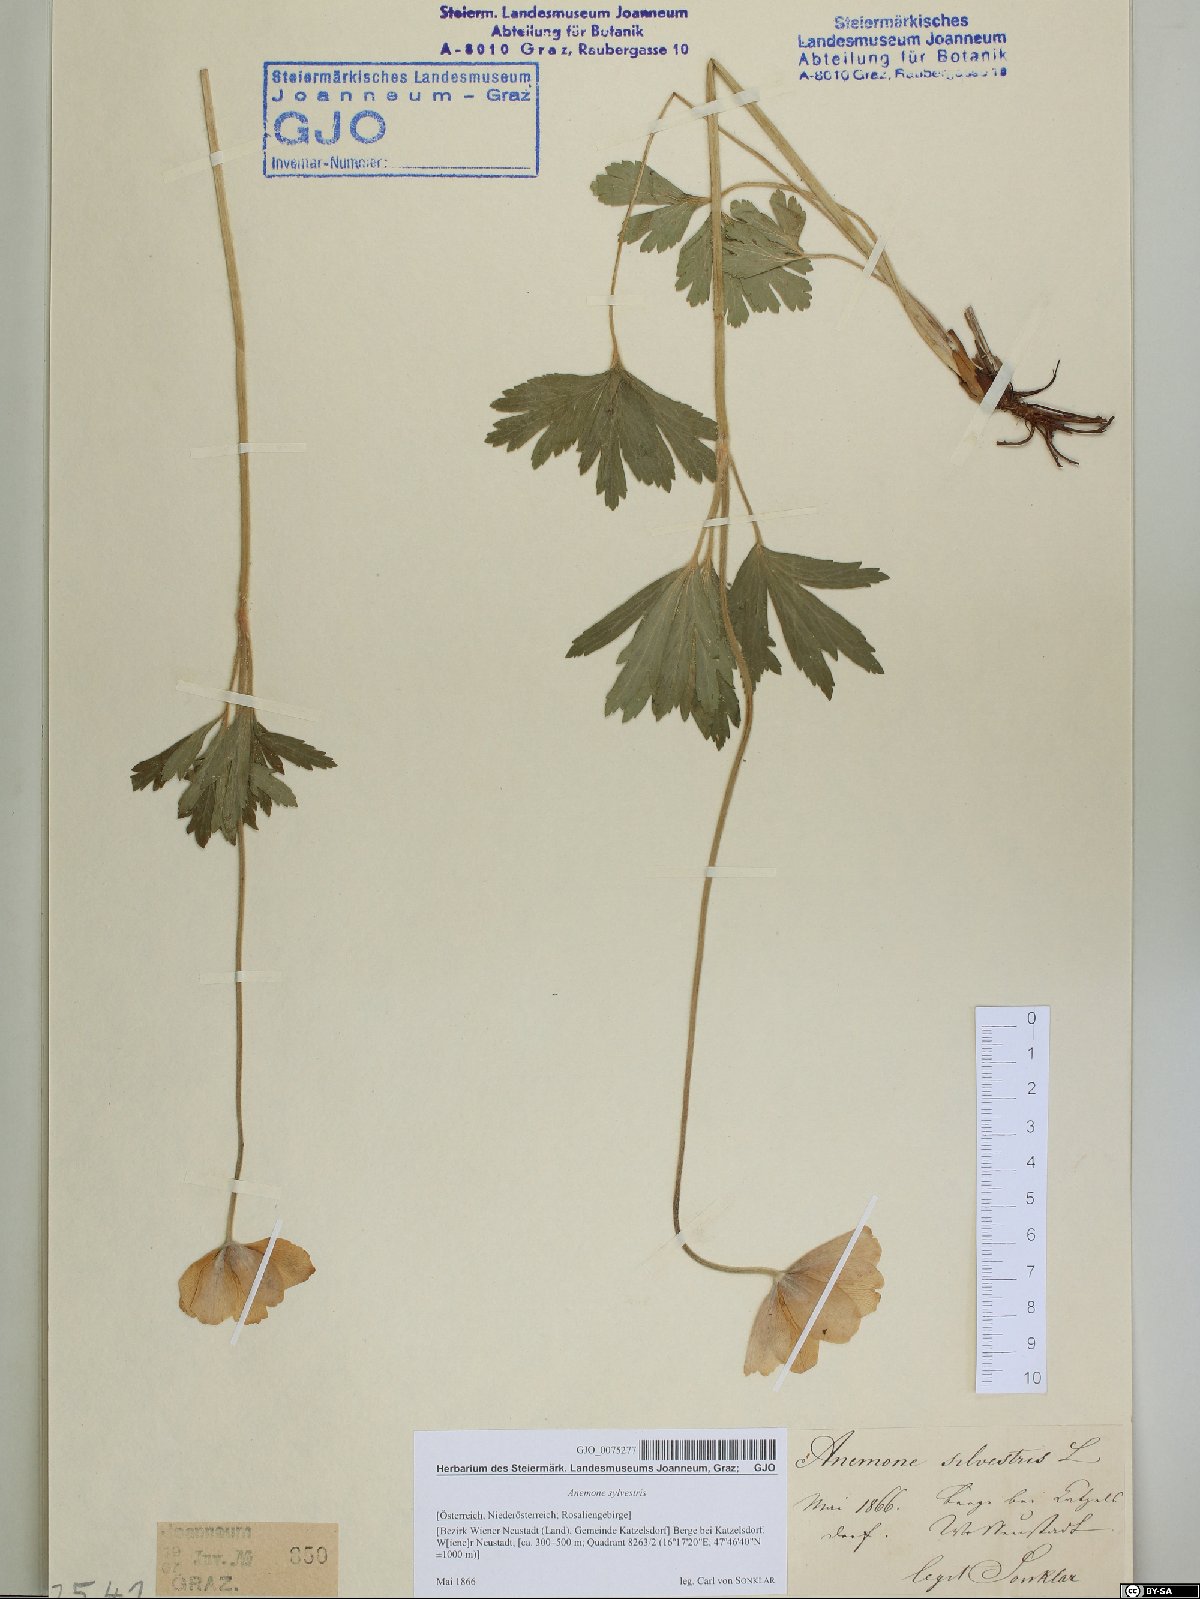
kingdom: Plantae
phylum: Tracheophyta
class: Magnoliopsida
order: Ranunculales
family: Ranunculaceae
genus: Anemone
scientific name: Anemone sylvestris
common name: Snowdrop anemone
